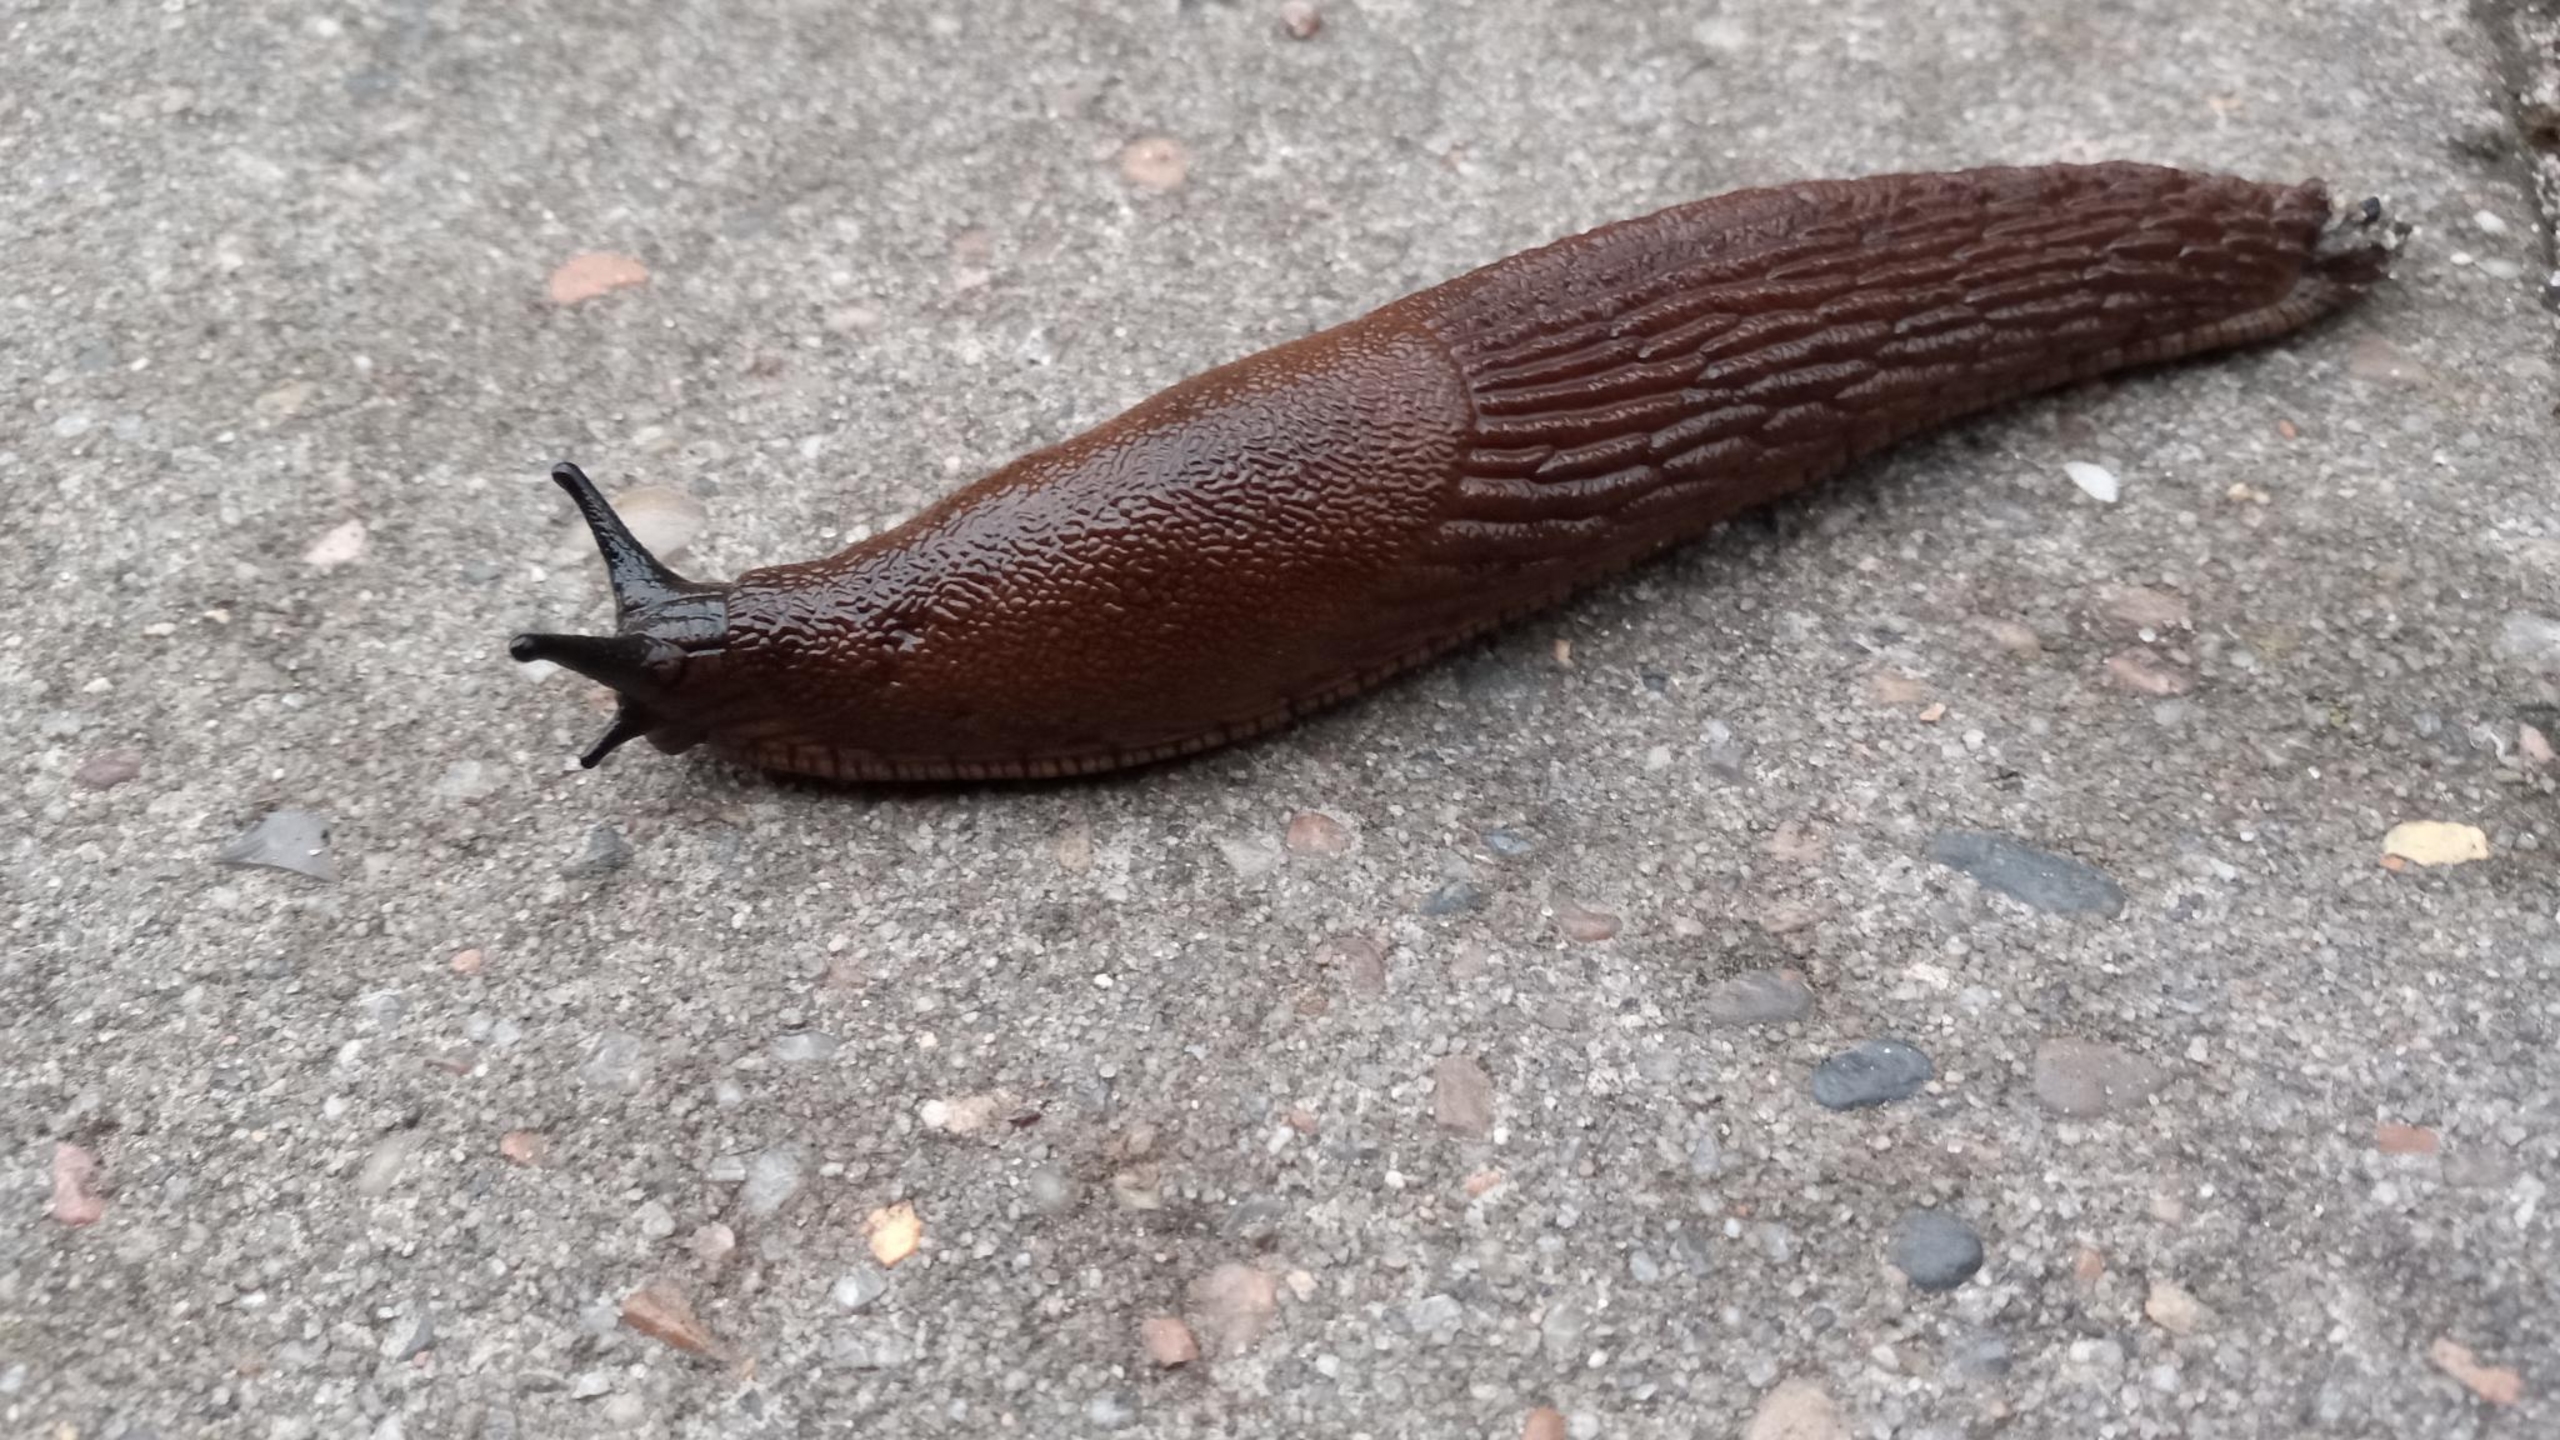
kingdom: Animalia
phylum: Mollusca
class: Gastropoda
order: Stylommatophora
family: Arionidae
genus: Arion
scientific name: Arion vulgaris
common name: Iberisk skovsnegl
